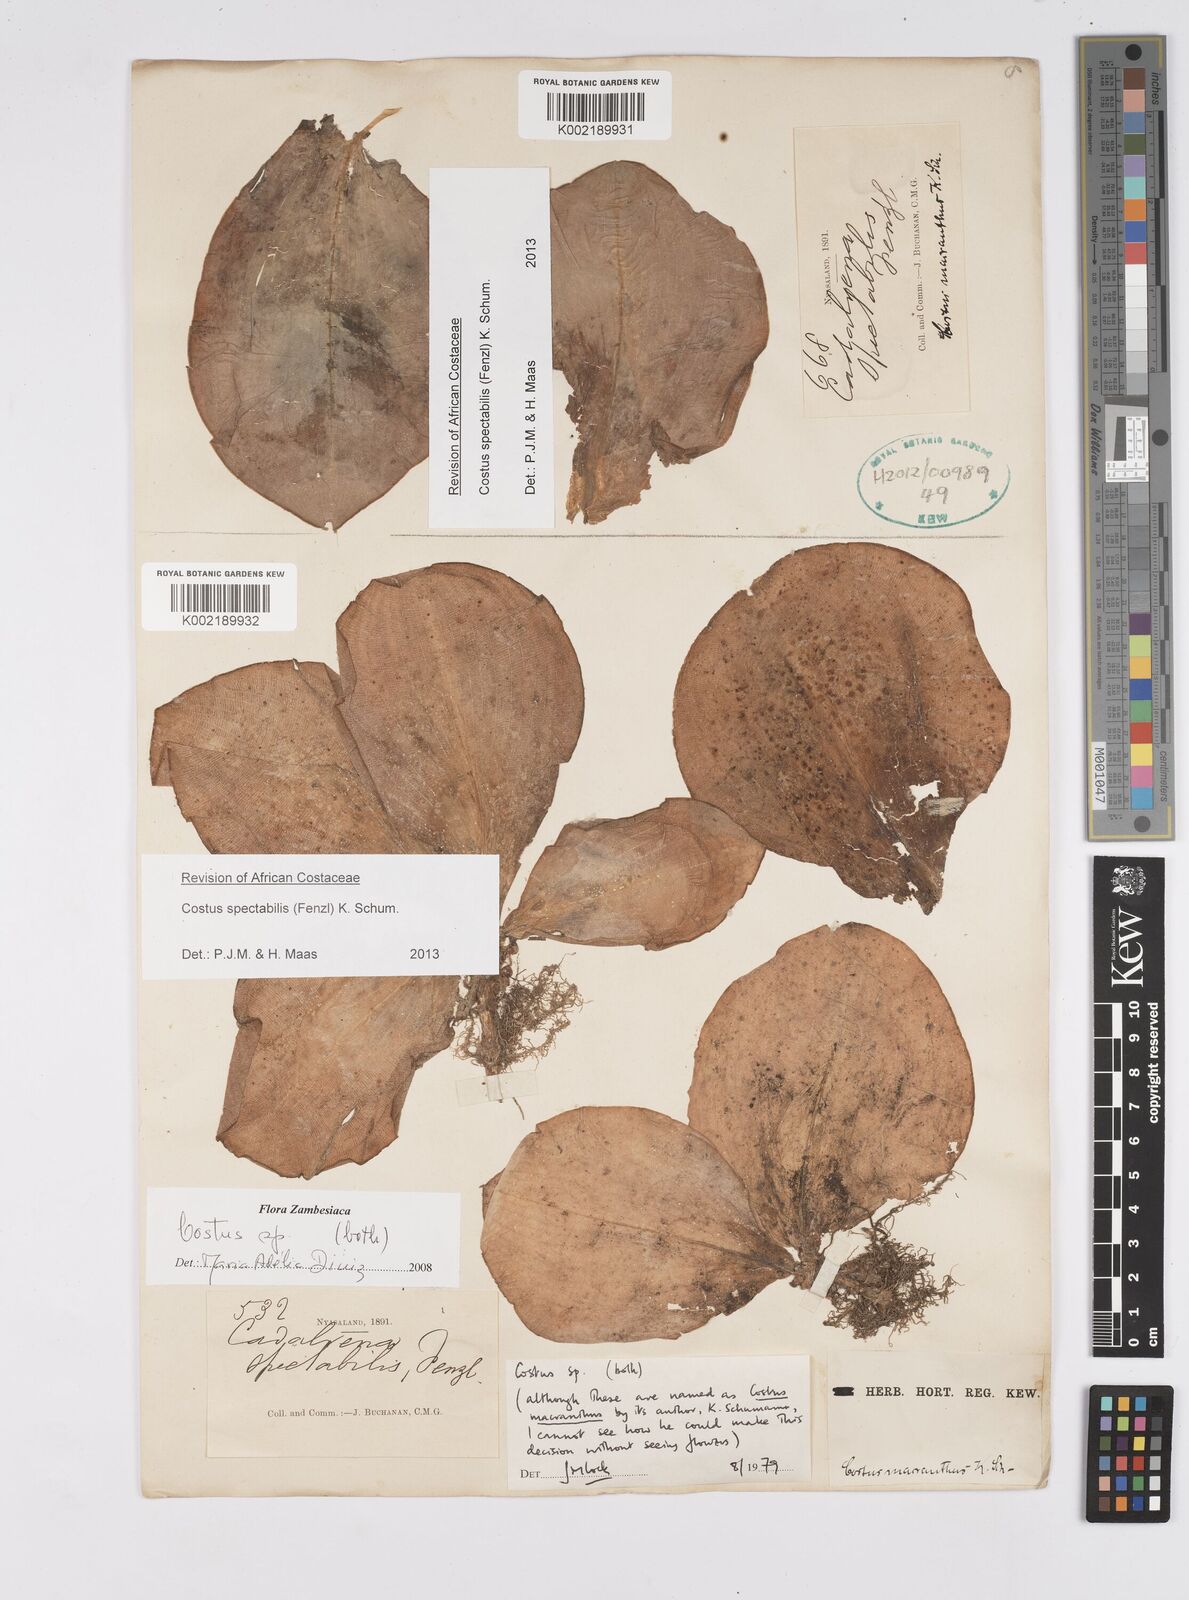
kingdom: Plantae
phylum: Tracheophyta
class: Liliopsida
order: Zingiberales
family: Costaceae
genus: Costus
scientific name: Costus spectabilis
